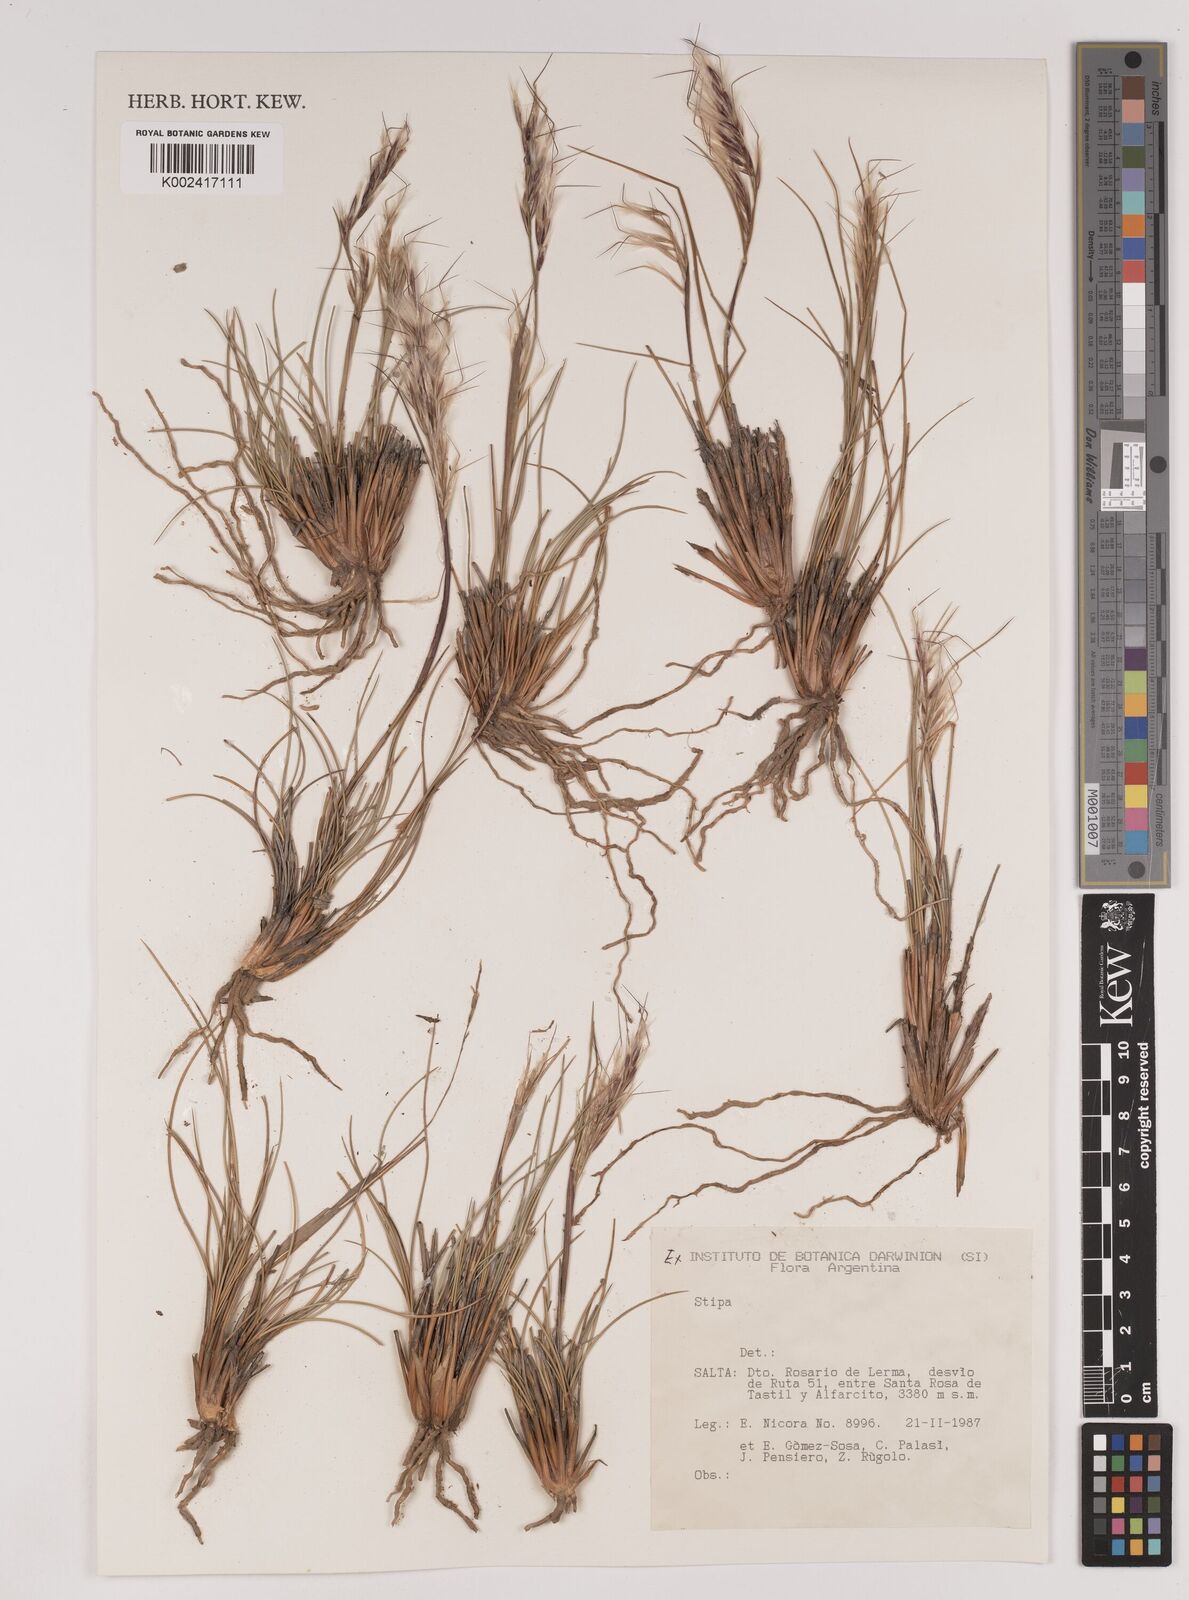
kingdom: Plantae
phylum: Tracheophyta
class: Liliopsida
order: Poales
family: Poaceae
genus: Stipa
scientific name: Stipa
